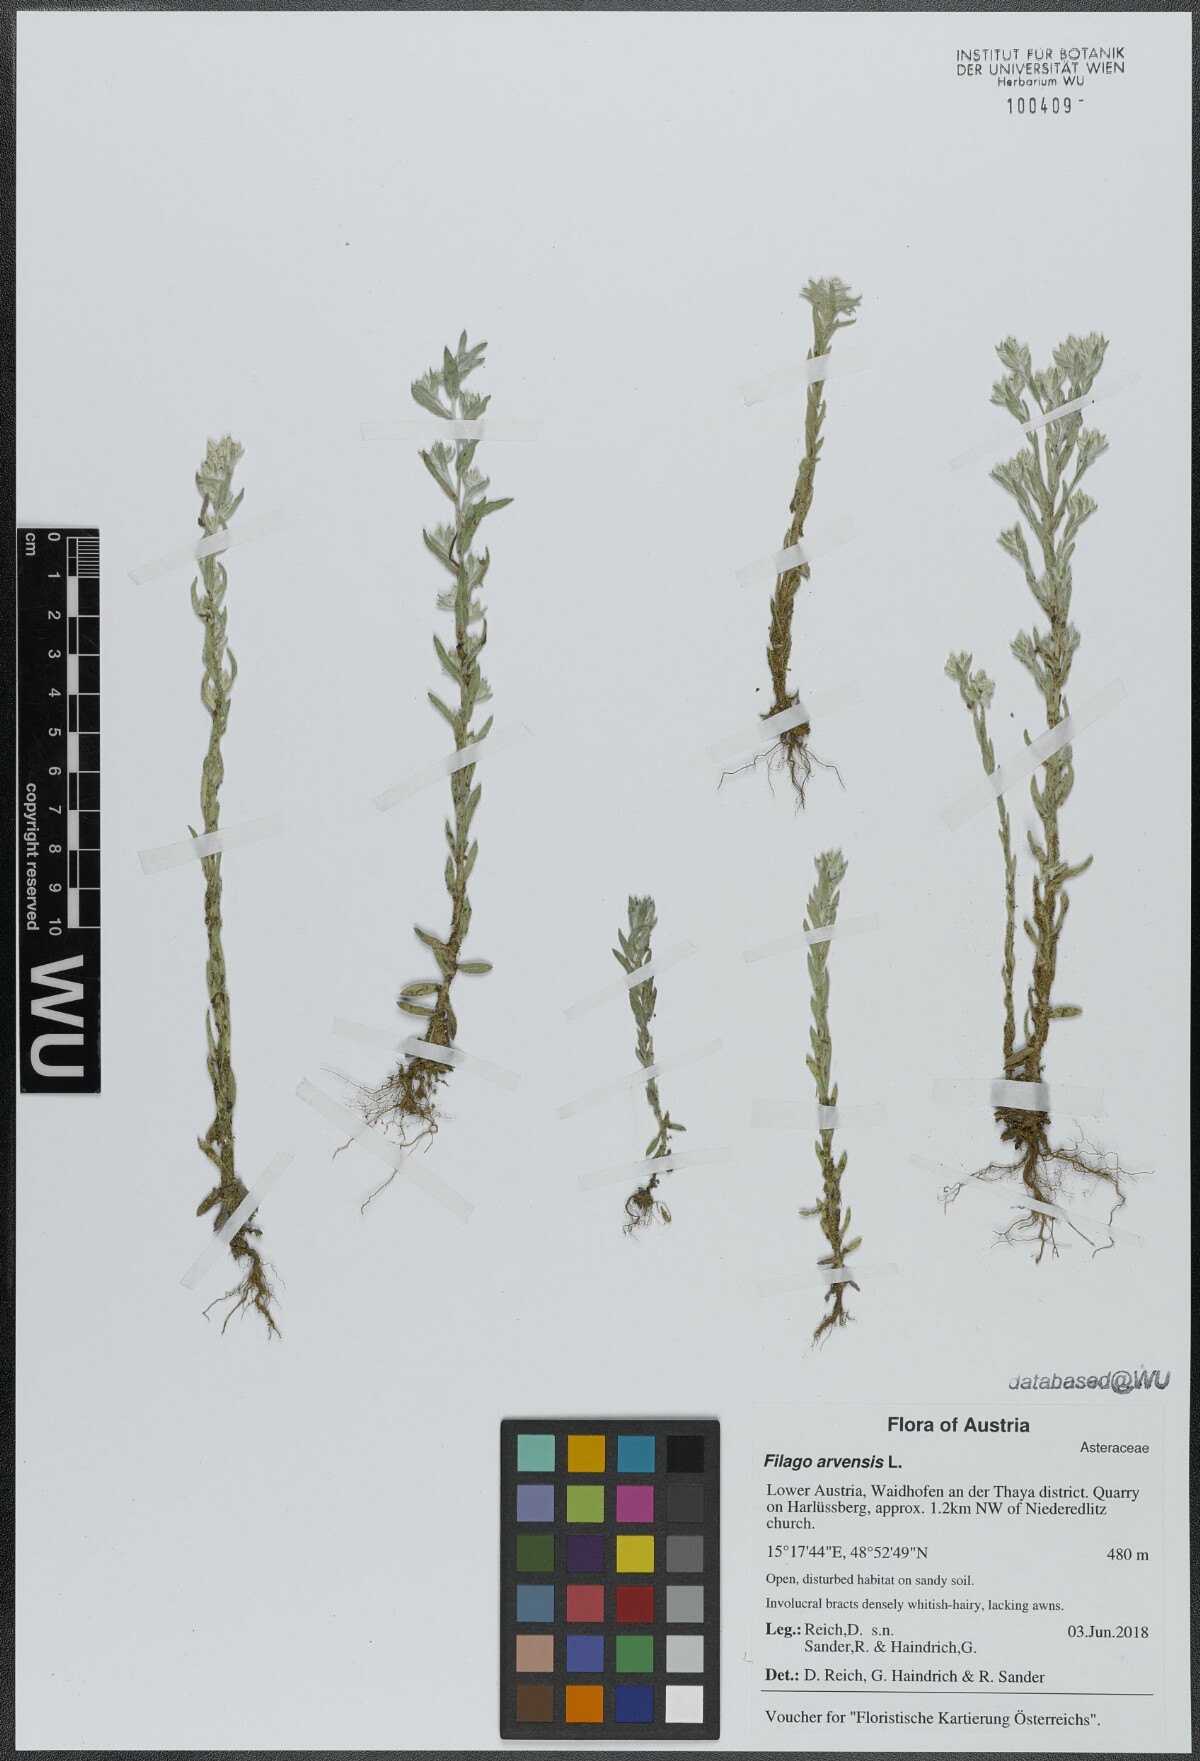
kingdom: Plantae
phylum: Tracheophyta
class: Magnoliopsida
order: Asterales
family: Asteraceae
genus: Filago
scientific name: Filago arvensis
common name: Field cudweed
